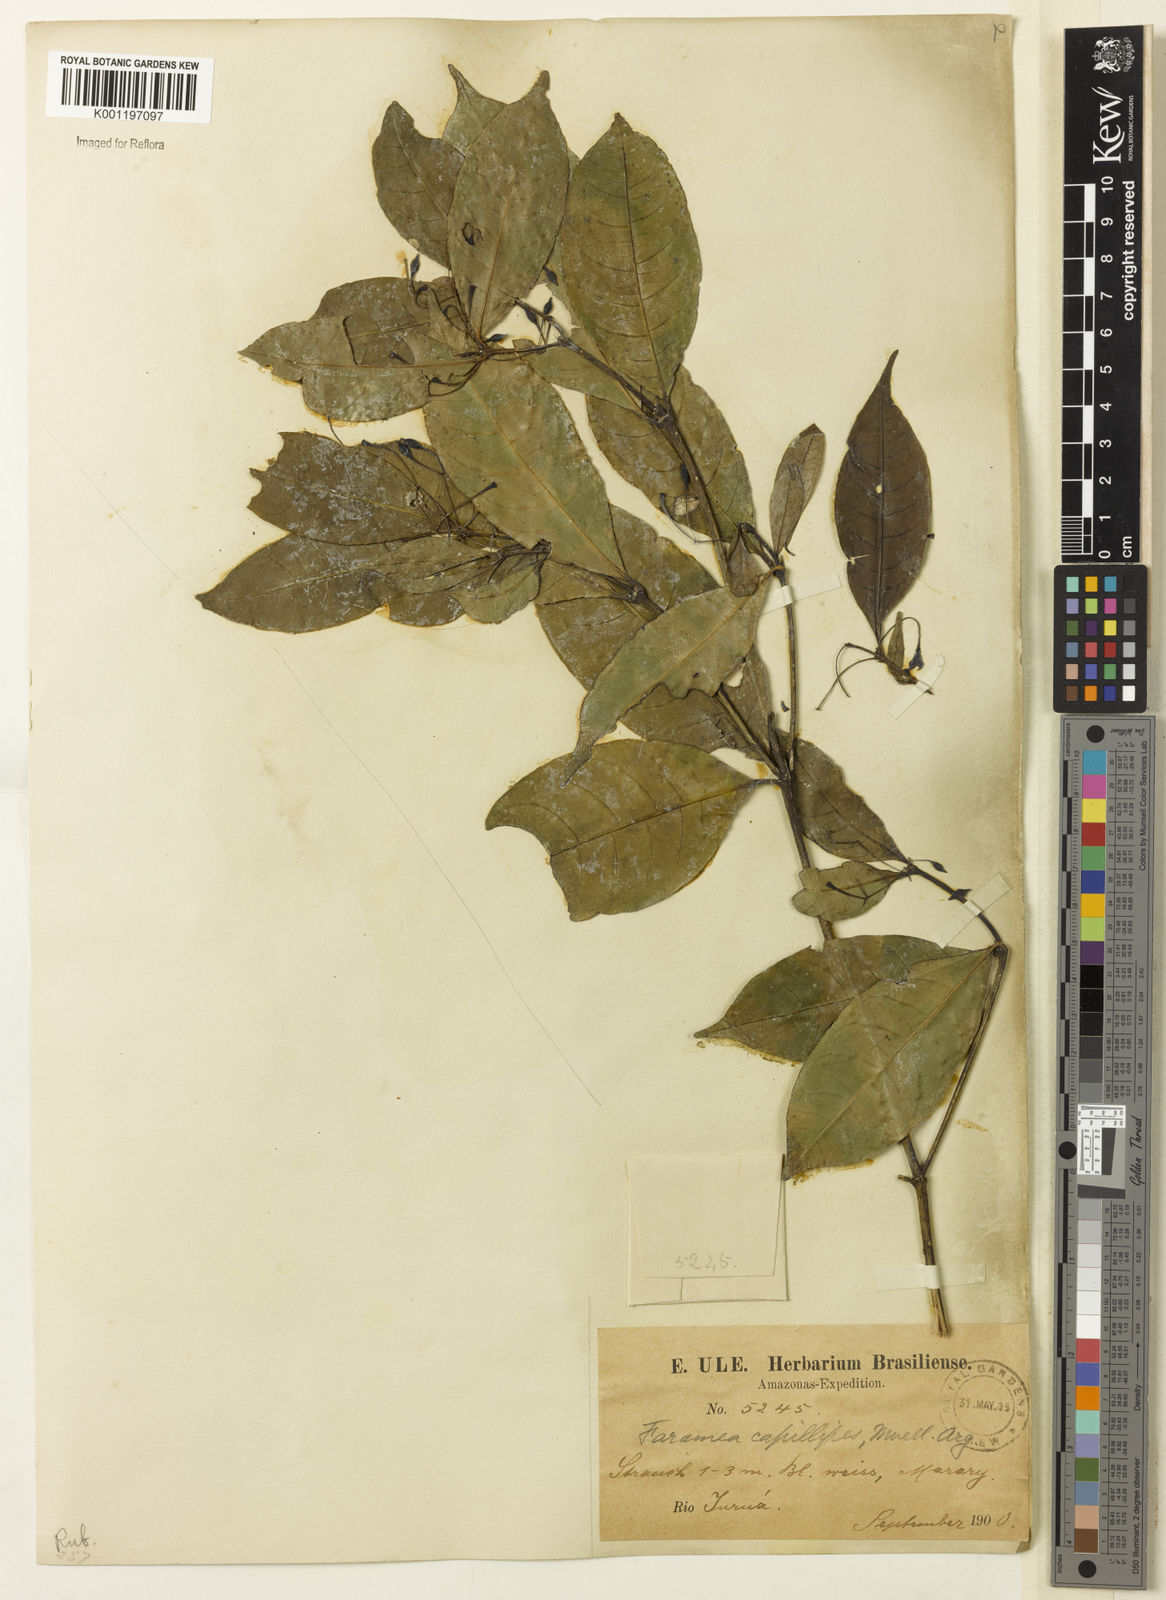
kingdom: Plantae
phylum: Tracheophyta
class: Magnoliopsida
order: Gentianales
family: Rubiaceae
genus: Faramea
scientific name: Faramea
